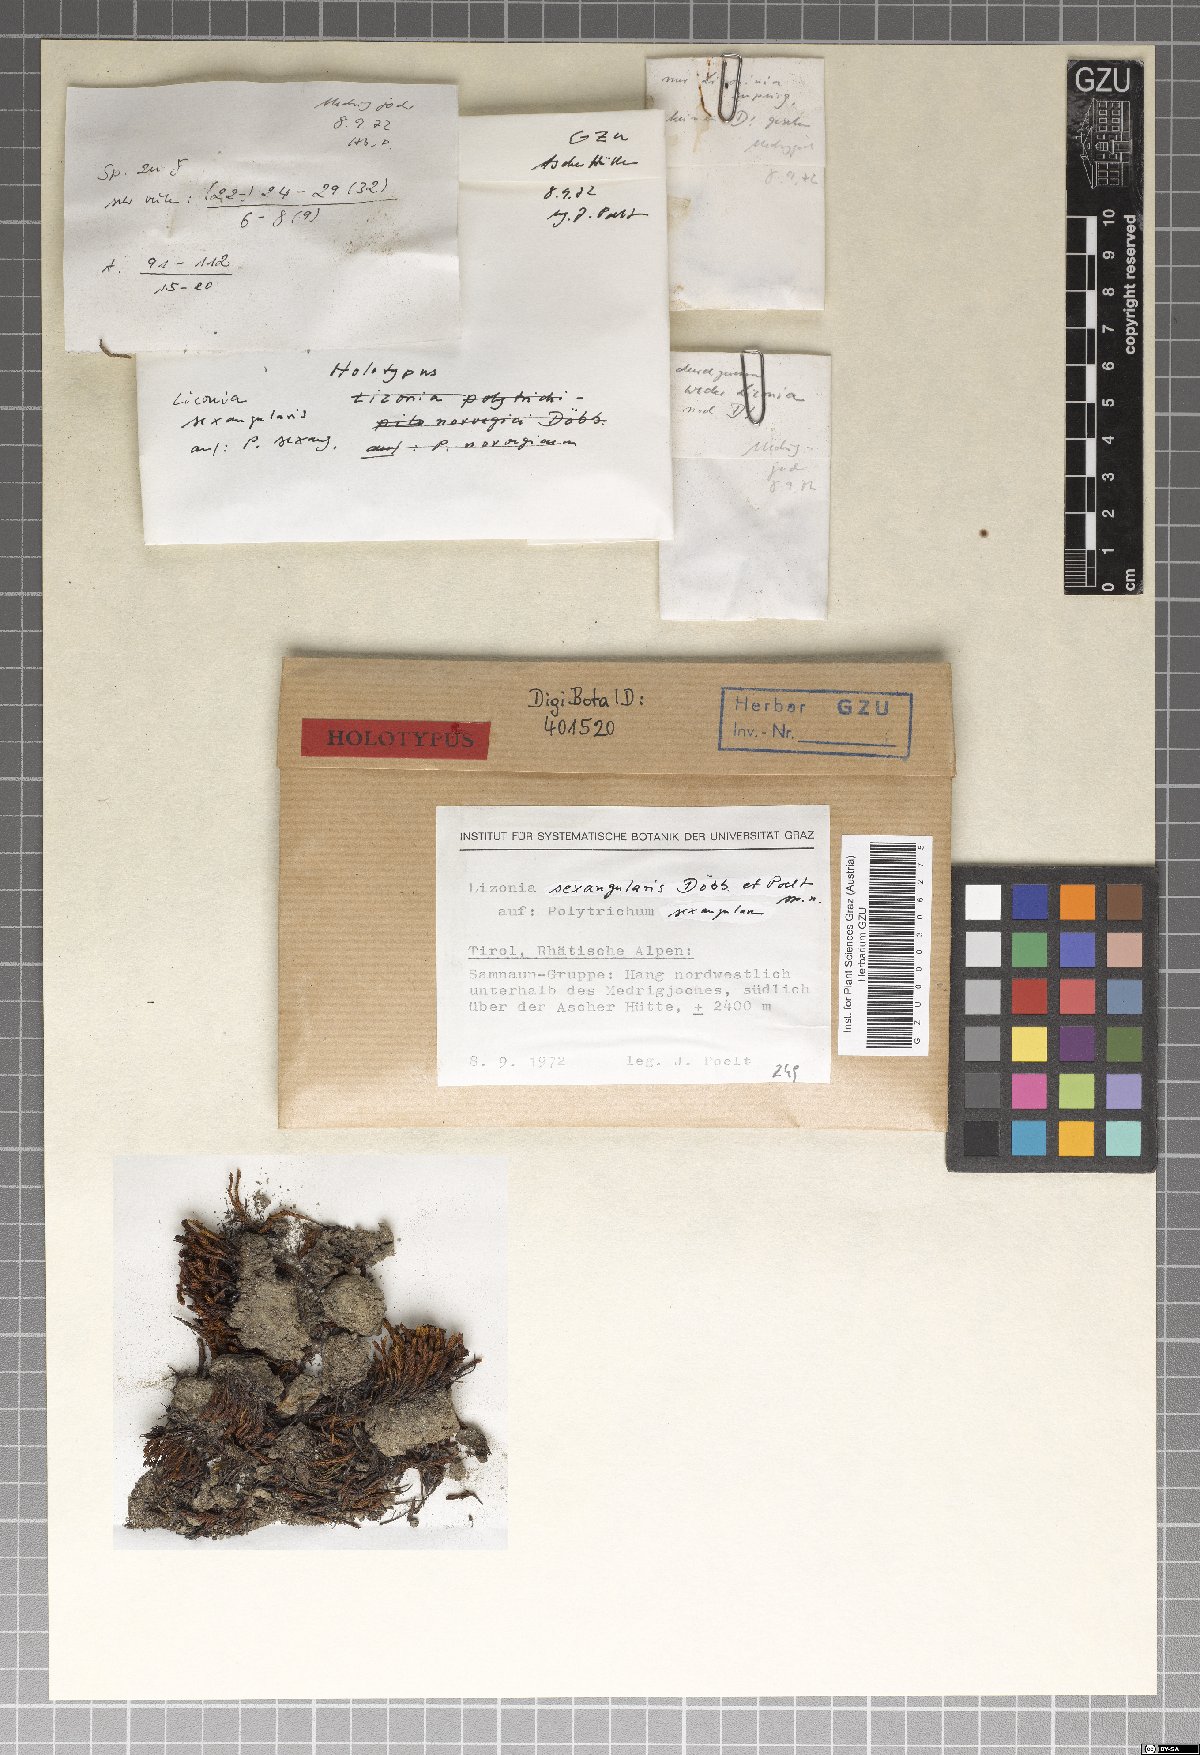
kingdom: Fungi
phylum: Ascomycota
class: Dothideomycetes
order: Pleosporales
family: Lizoniaceae
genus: Lizonia
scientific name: Lizonia sexangularis
